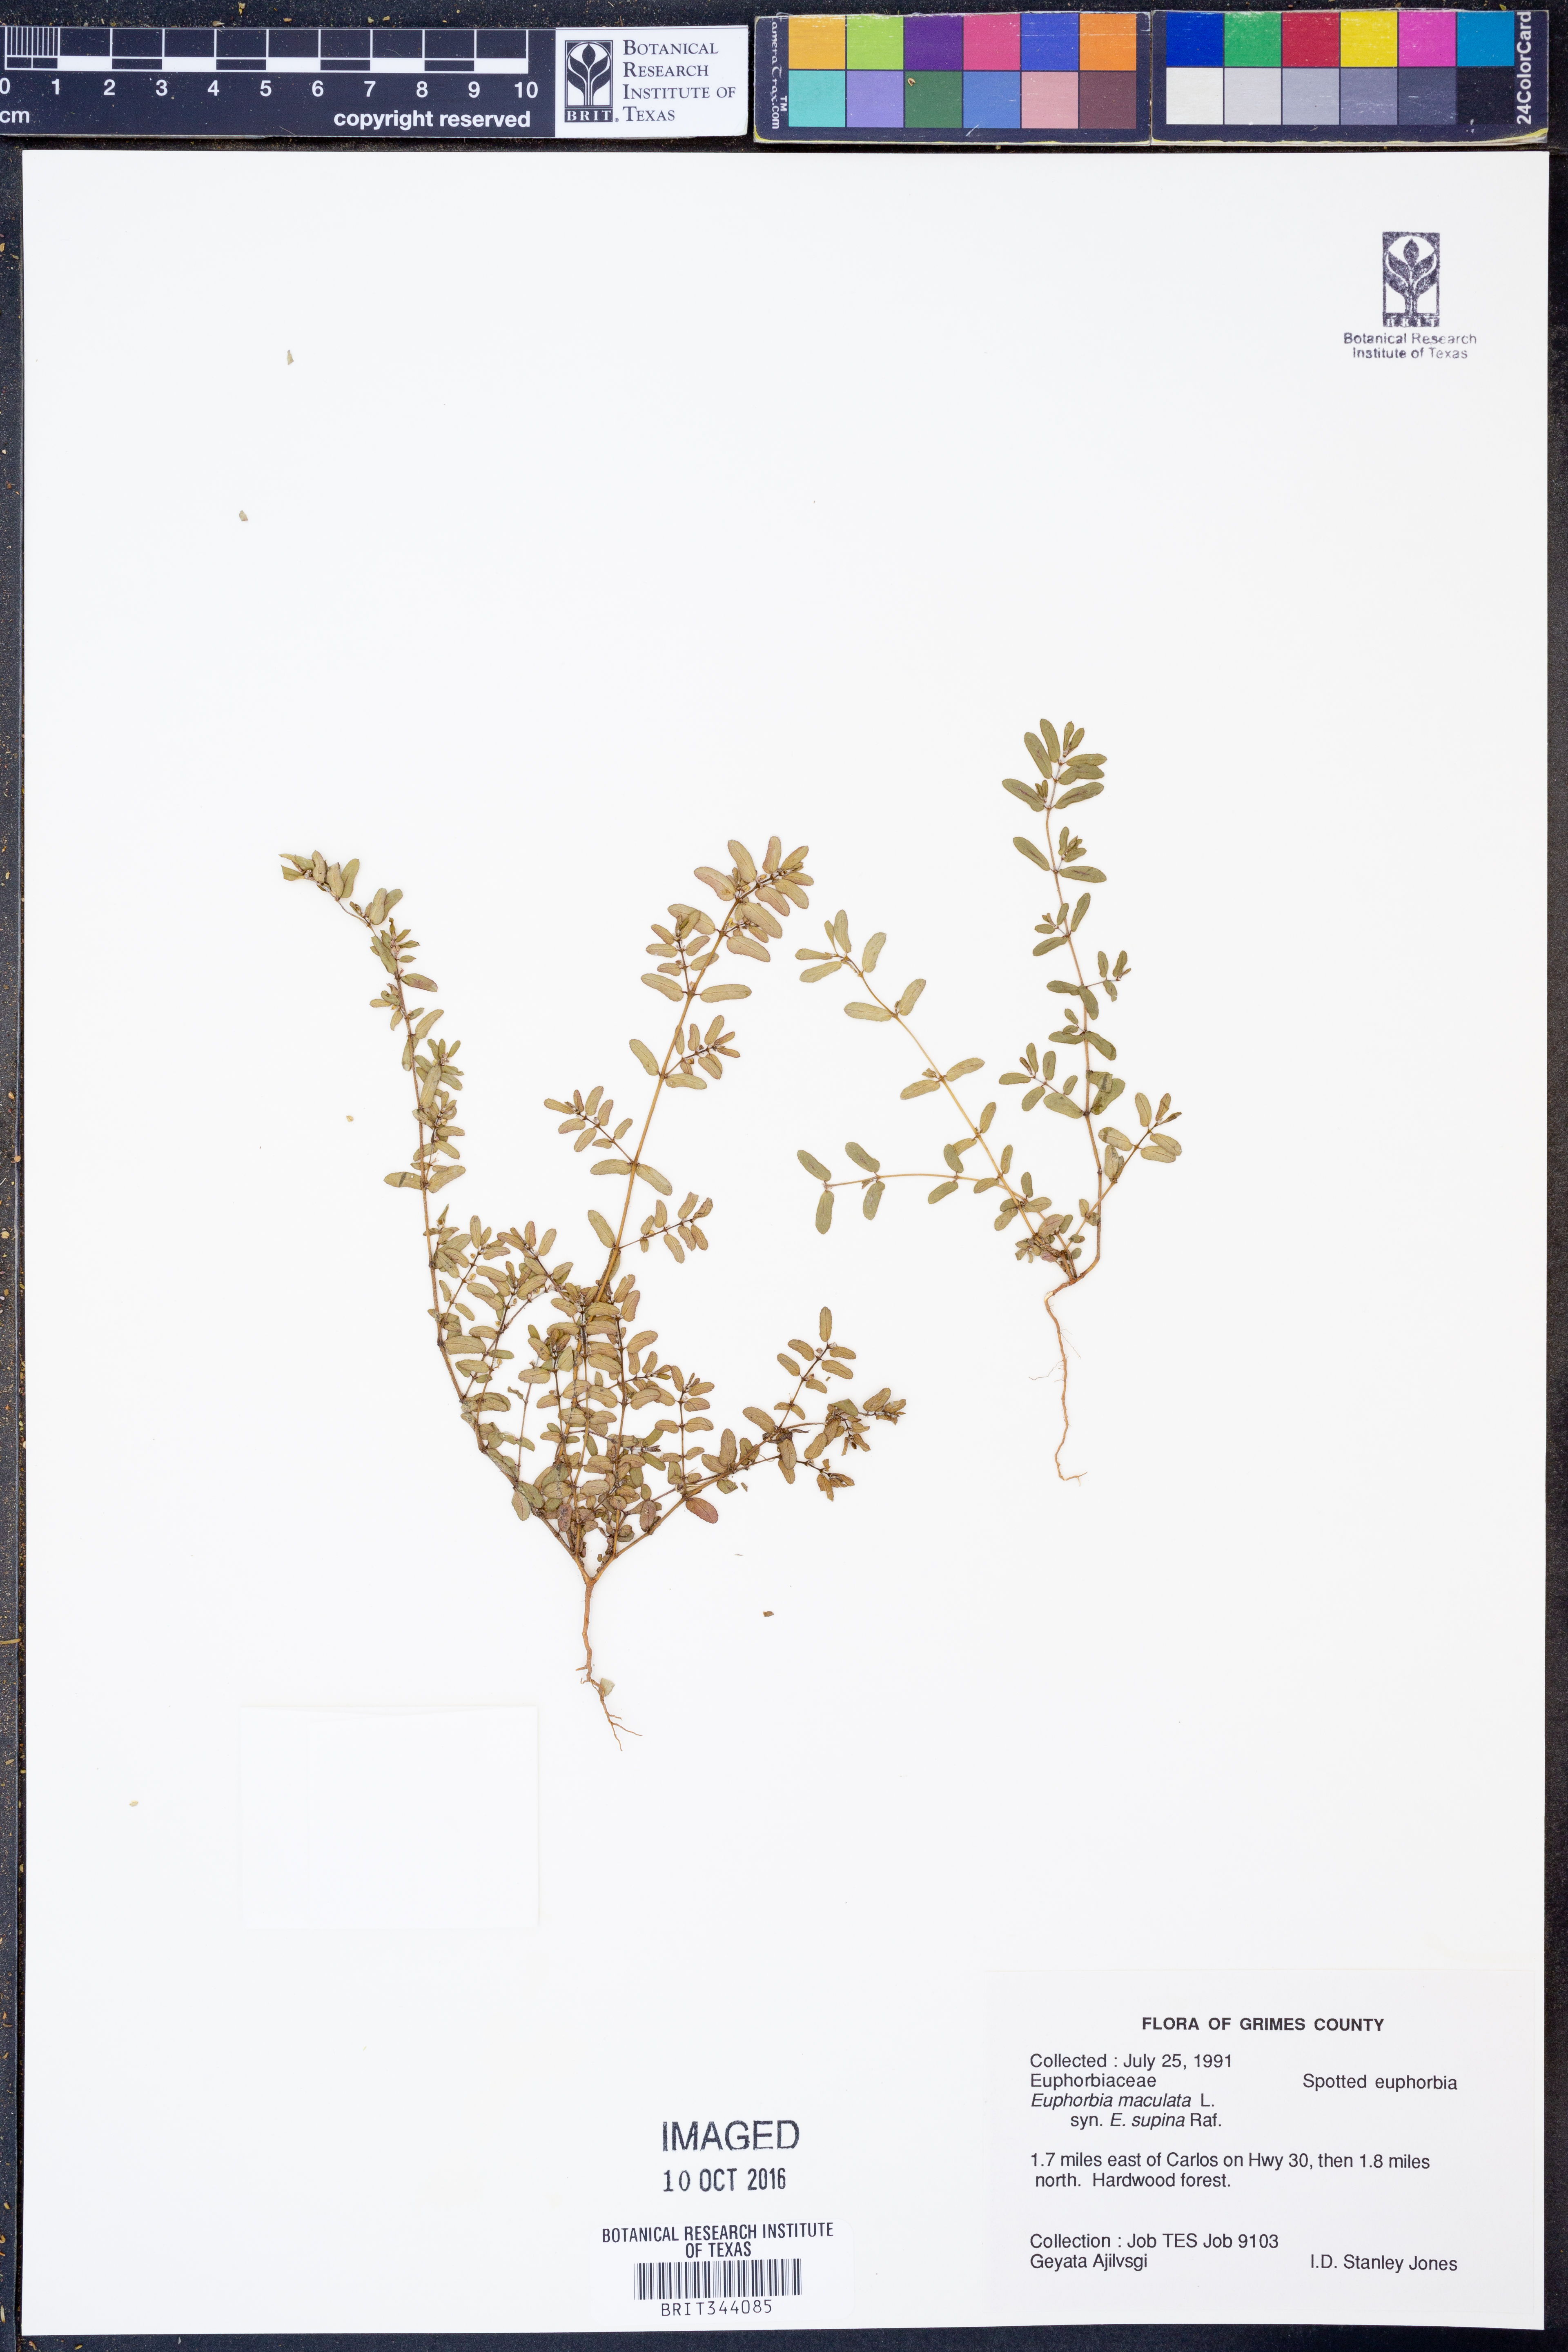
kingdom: Plantae
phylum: Tracheophyta
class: Magnoliopsida
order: Malpighiales
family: Euphorbiaceae
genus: Euphorbia
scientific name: Euphorbia maculata
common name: Spotted spurge
